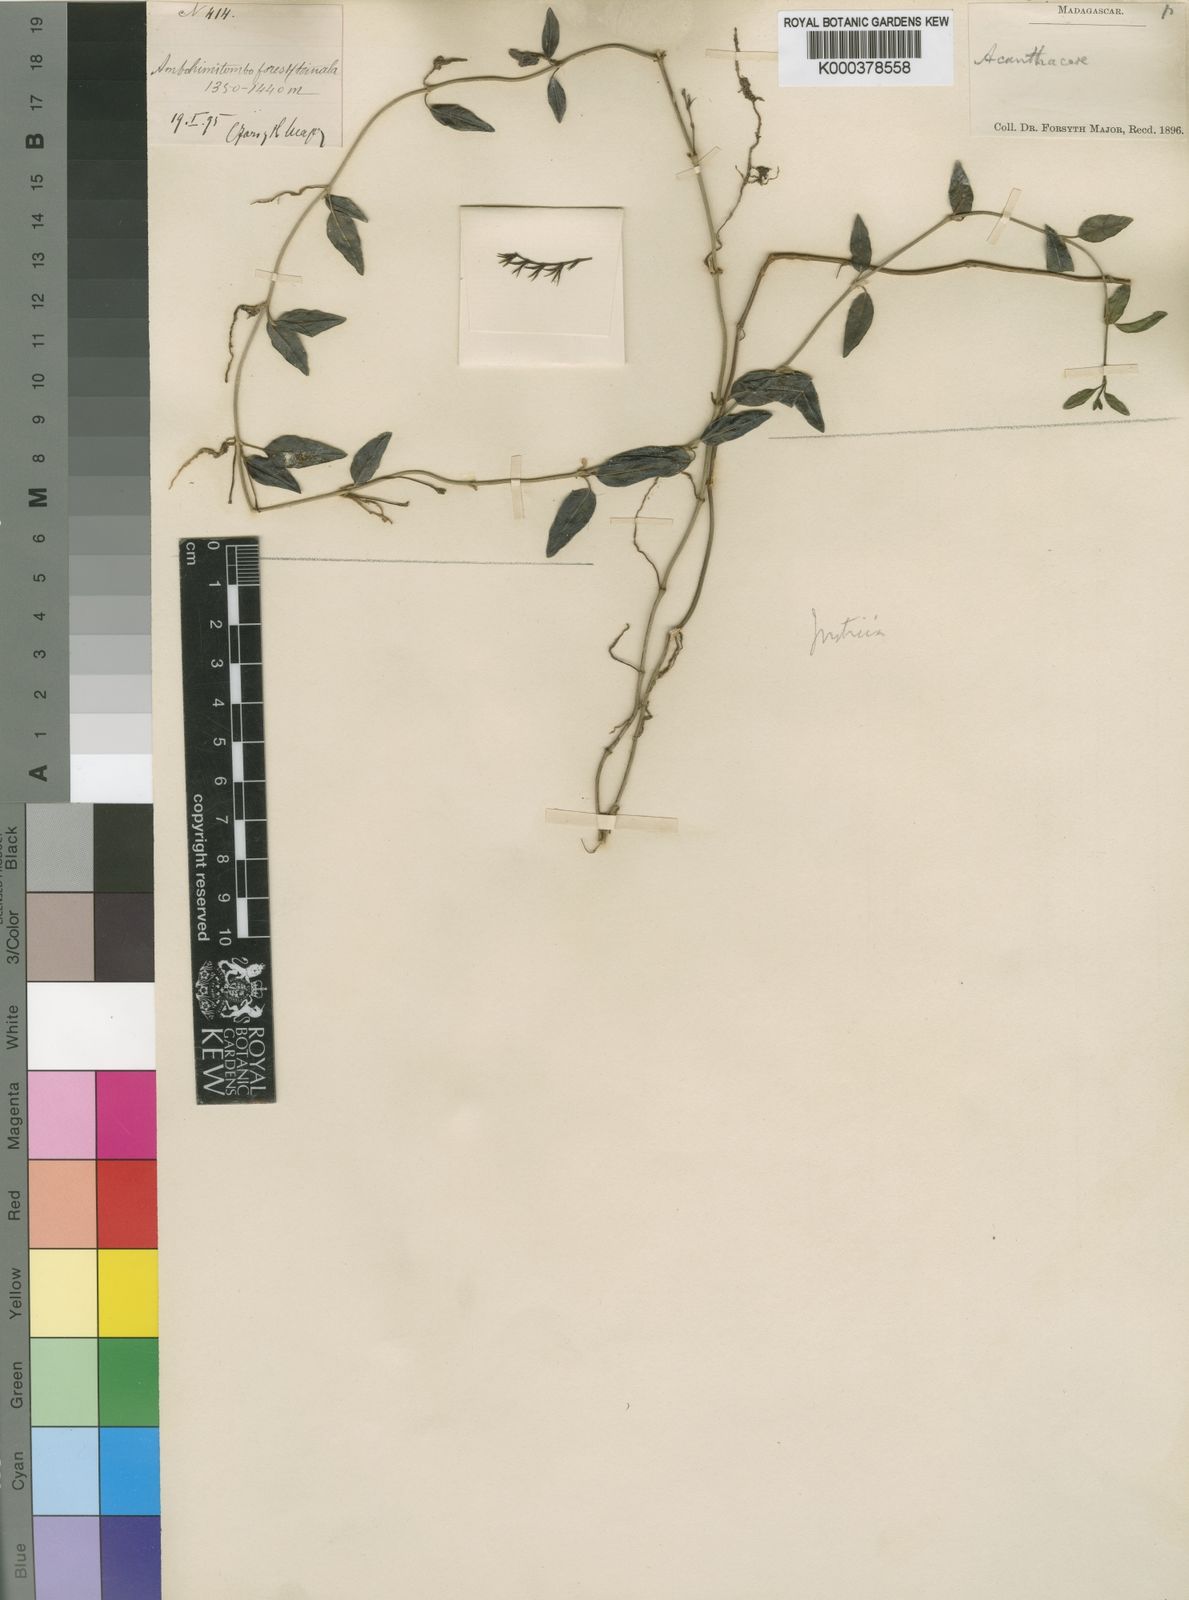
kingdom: Plantae
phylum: Tracheophyta
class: Magnoliopsida
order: Lamiales
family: Acanthaceae
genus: Justicia
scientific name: Justicia tanalensis
